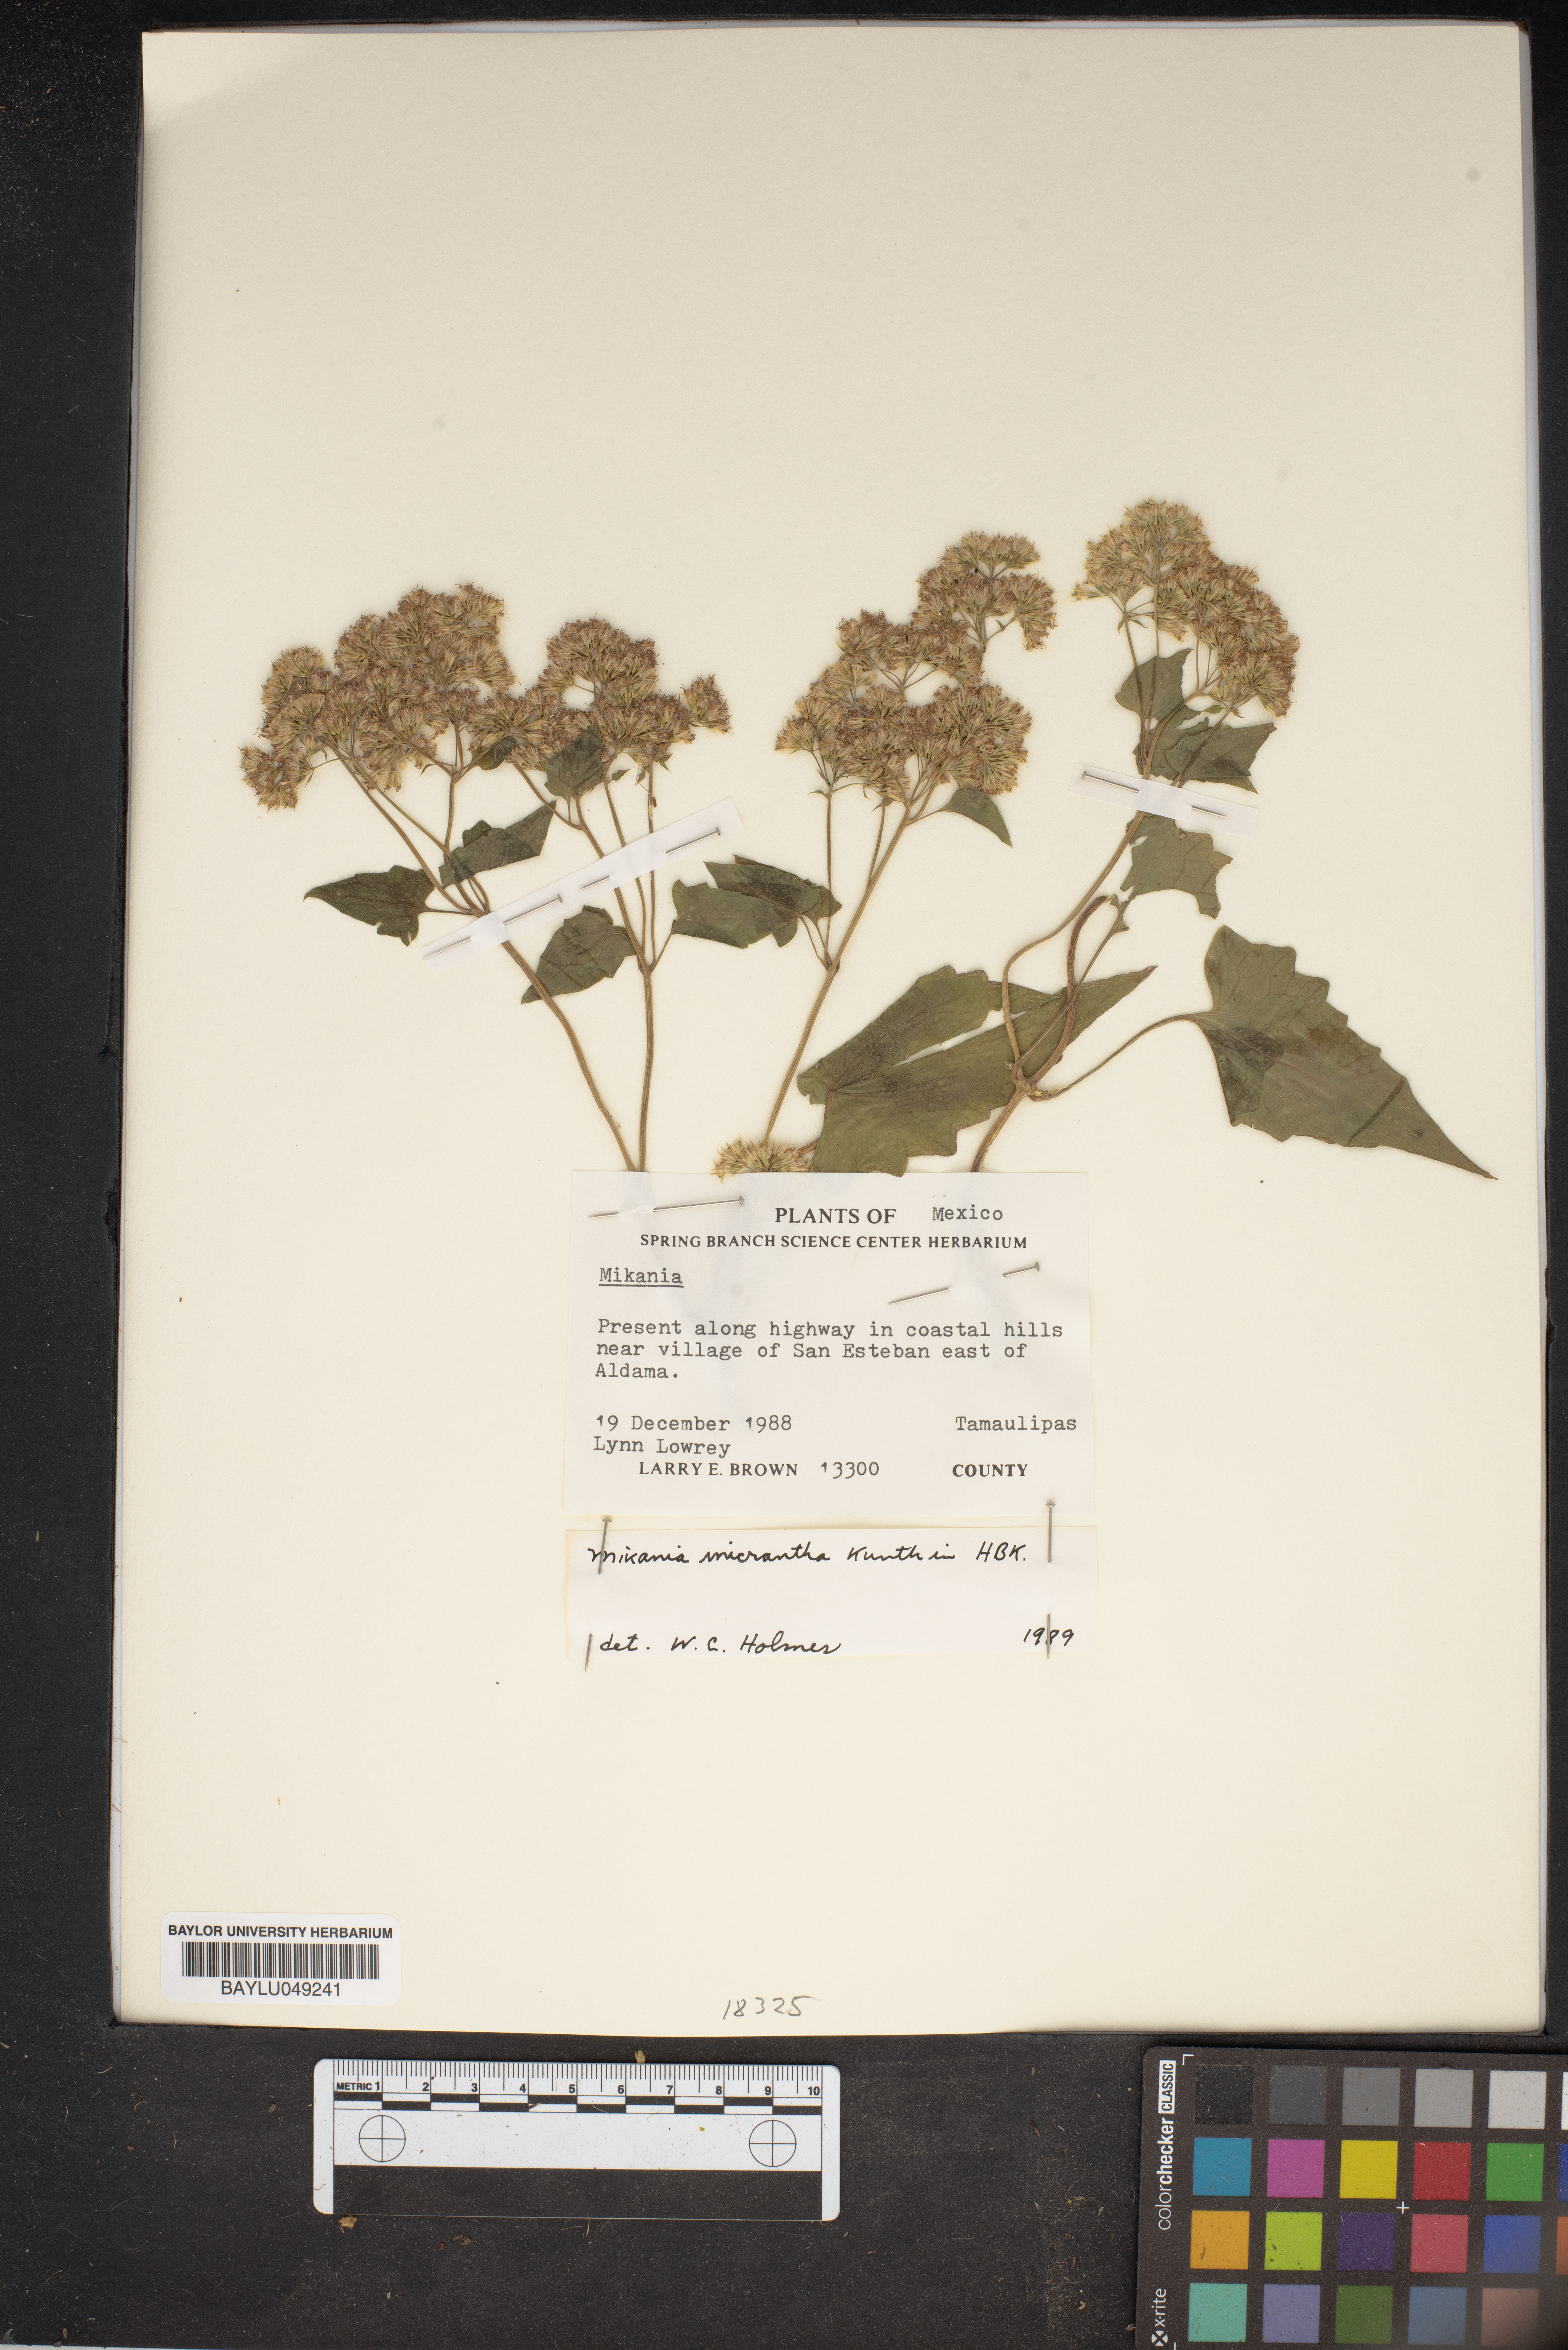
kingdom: Plantae
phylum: Tracheophyta
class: Magnoliopsida
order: Asterales
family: Asteraceae
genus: Mikania
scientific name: Mikania micrantha
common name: Mile-a-minute
